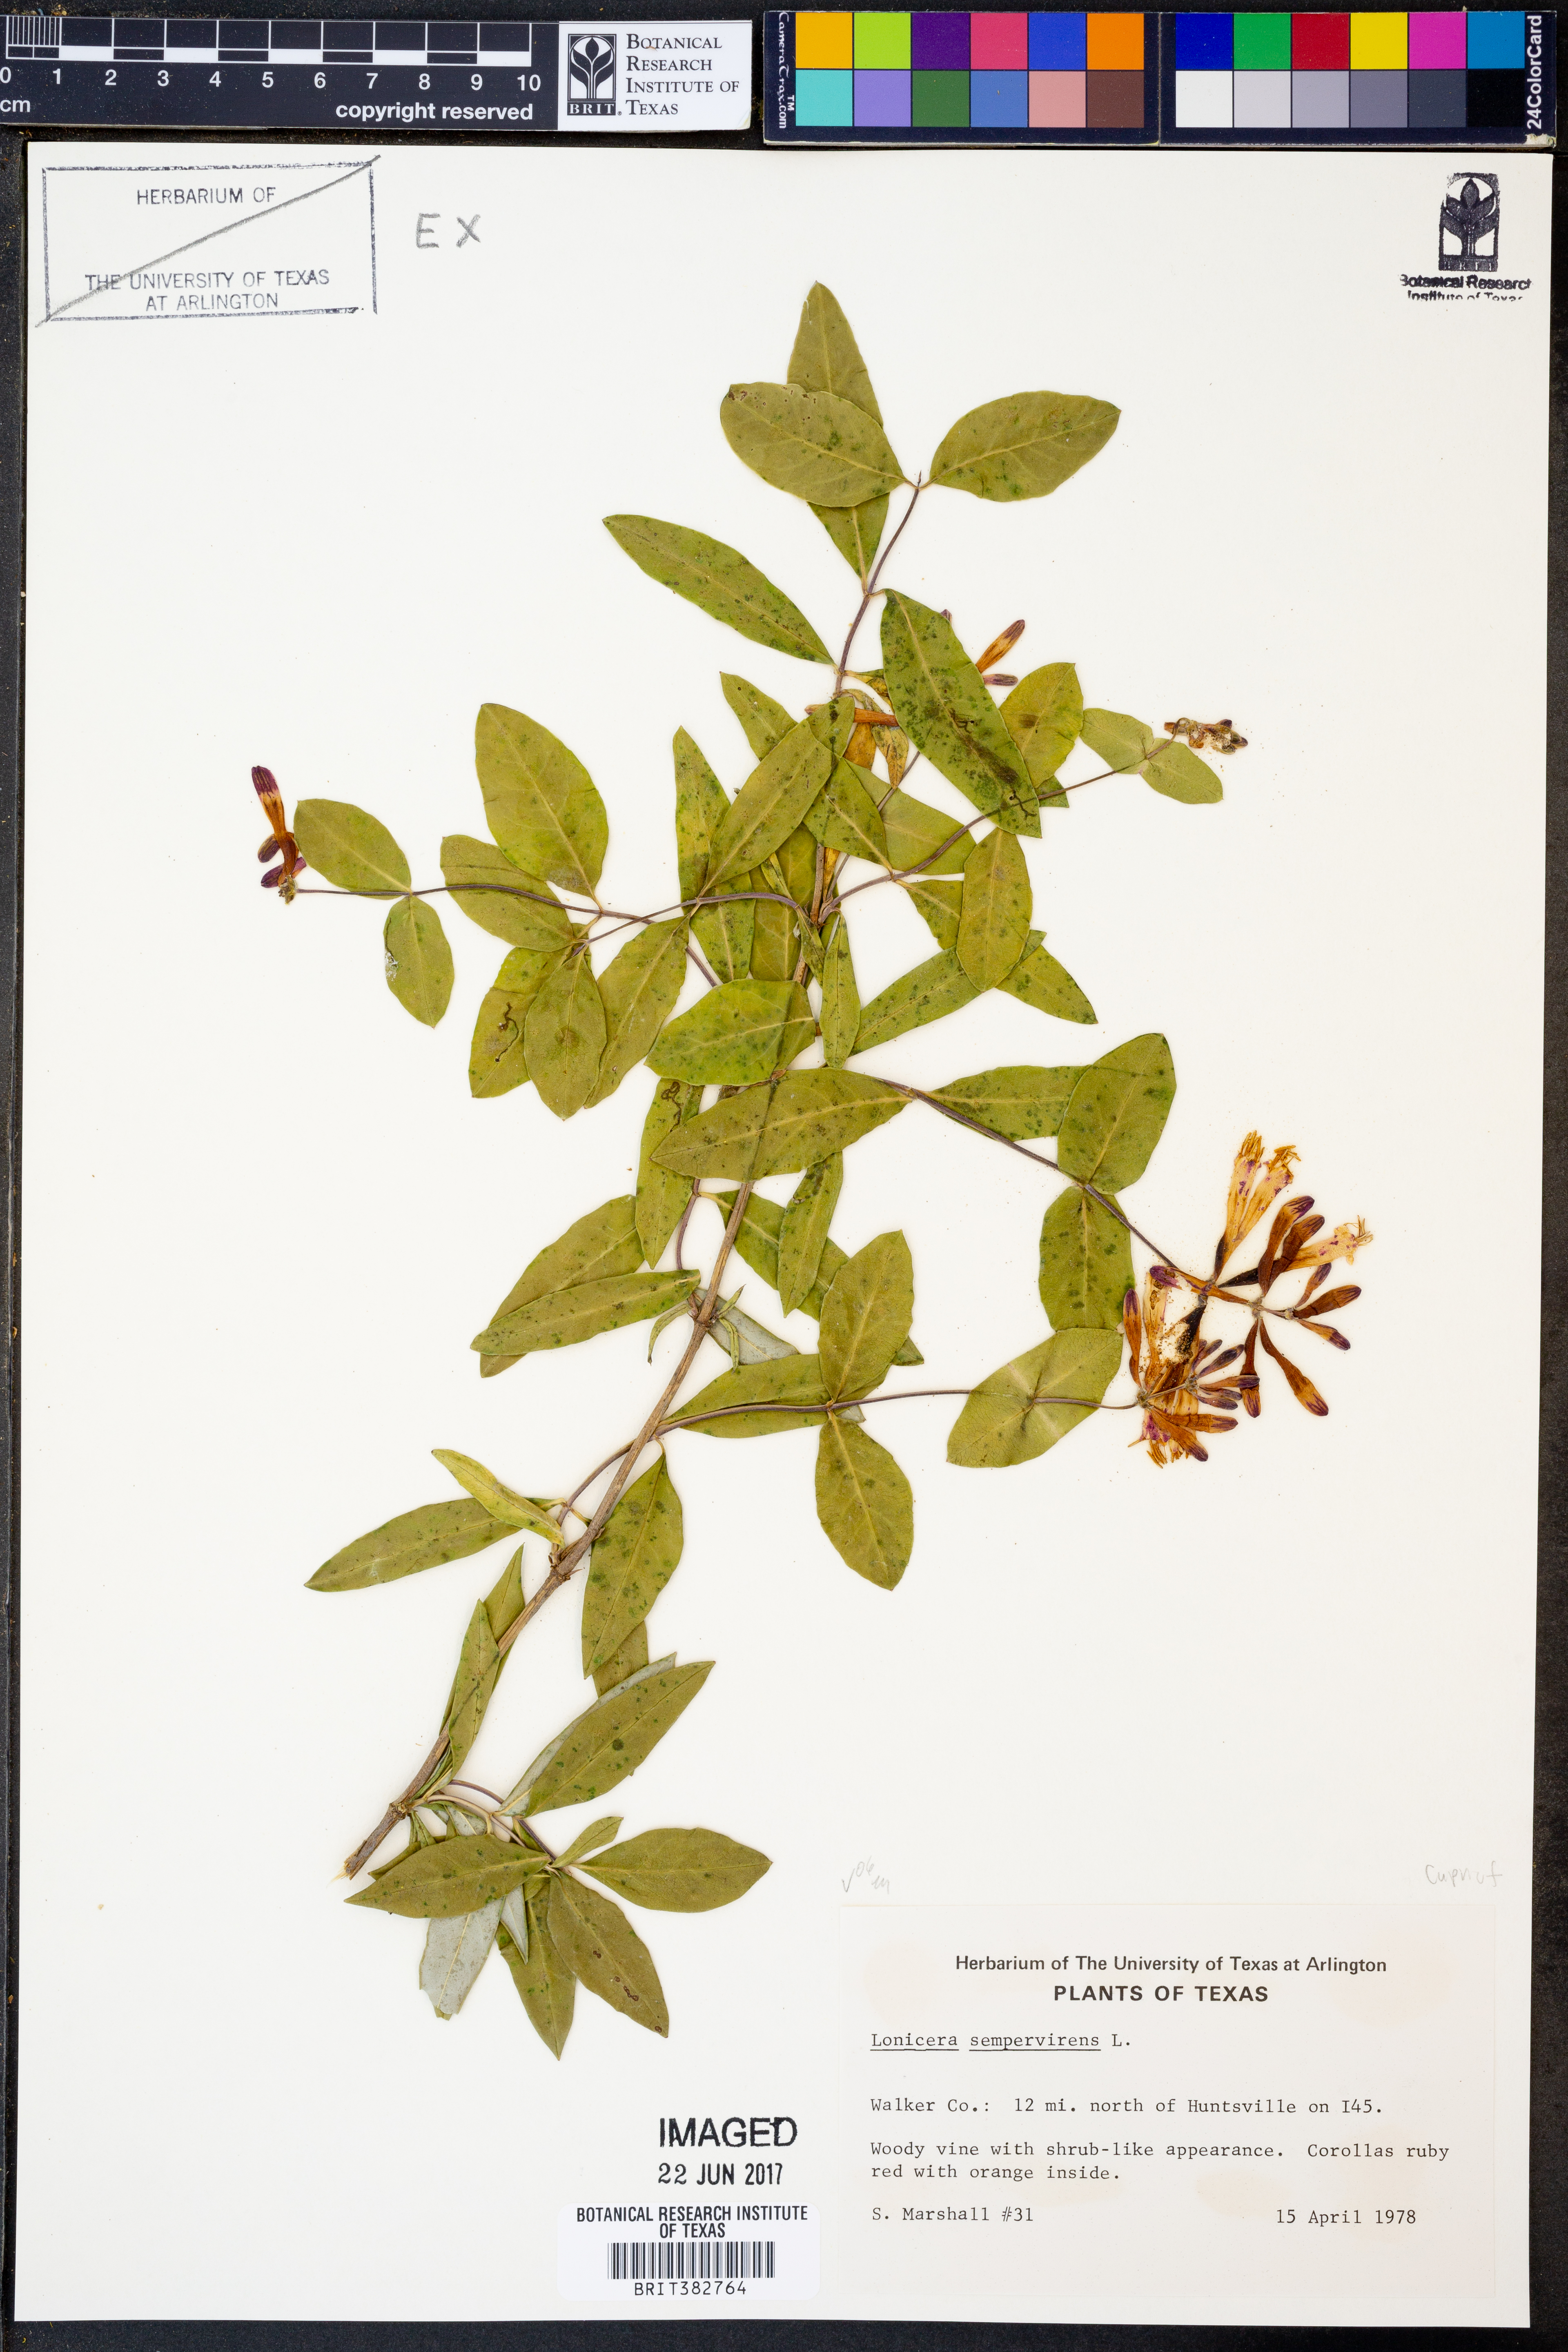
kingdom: Plantae
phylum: Tracheophyta
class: Magnoliopsida
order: Dipsacales
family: Caprifoliaceae
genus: Lonicera
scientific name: Lonicera sempervirens
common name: Coral honeysuckle
